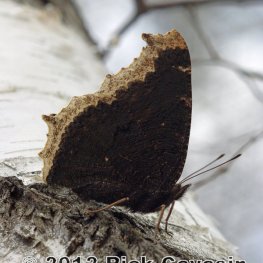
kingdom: Animalia
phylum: Arthropoda
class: Insecta
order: Lepidoptera
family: Nymphalidae
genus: Nymphalis
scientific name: Nymphalis antiopa
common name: Mourning Cloak
